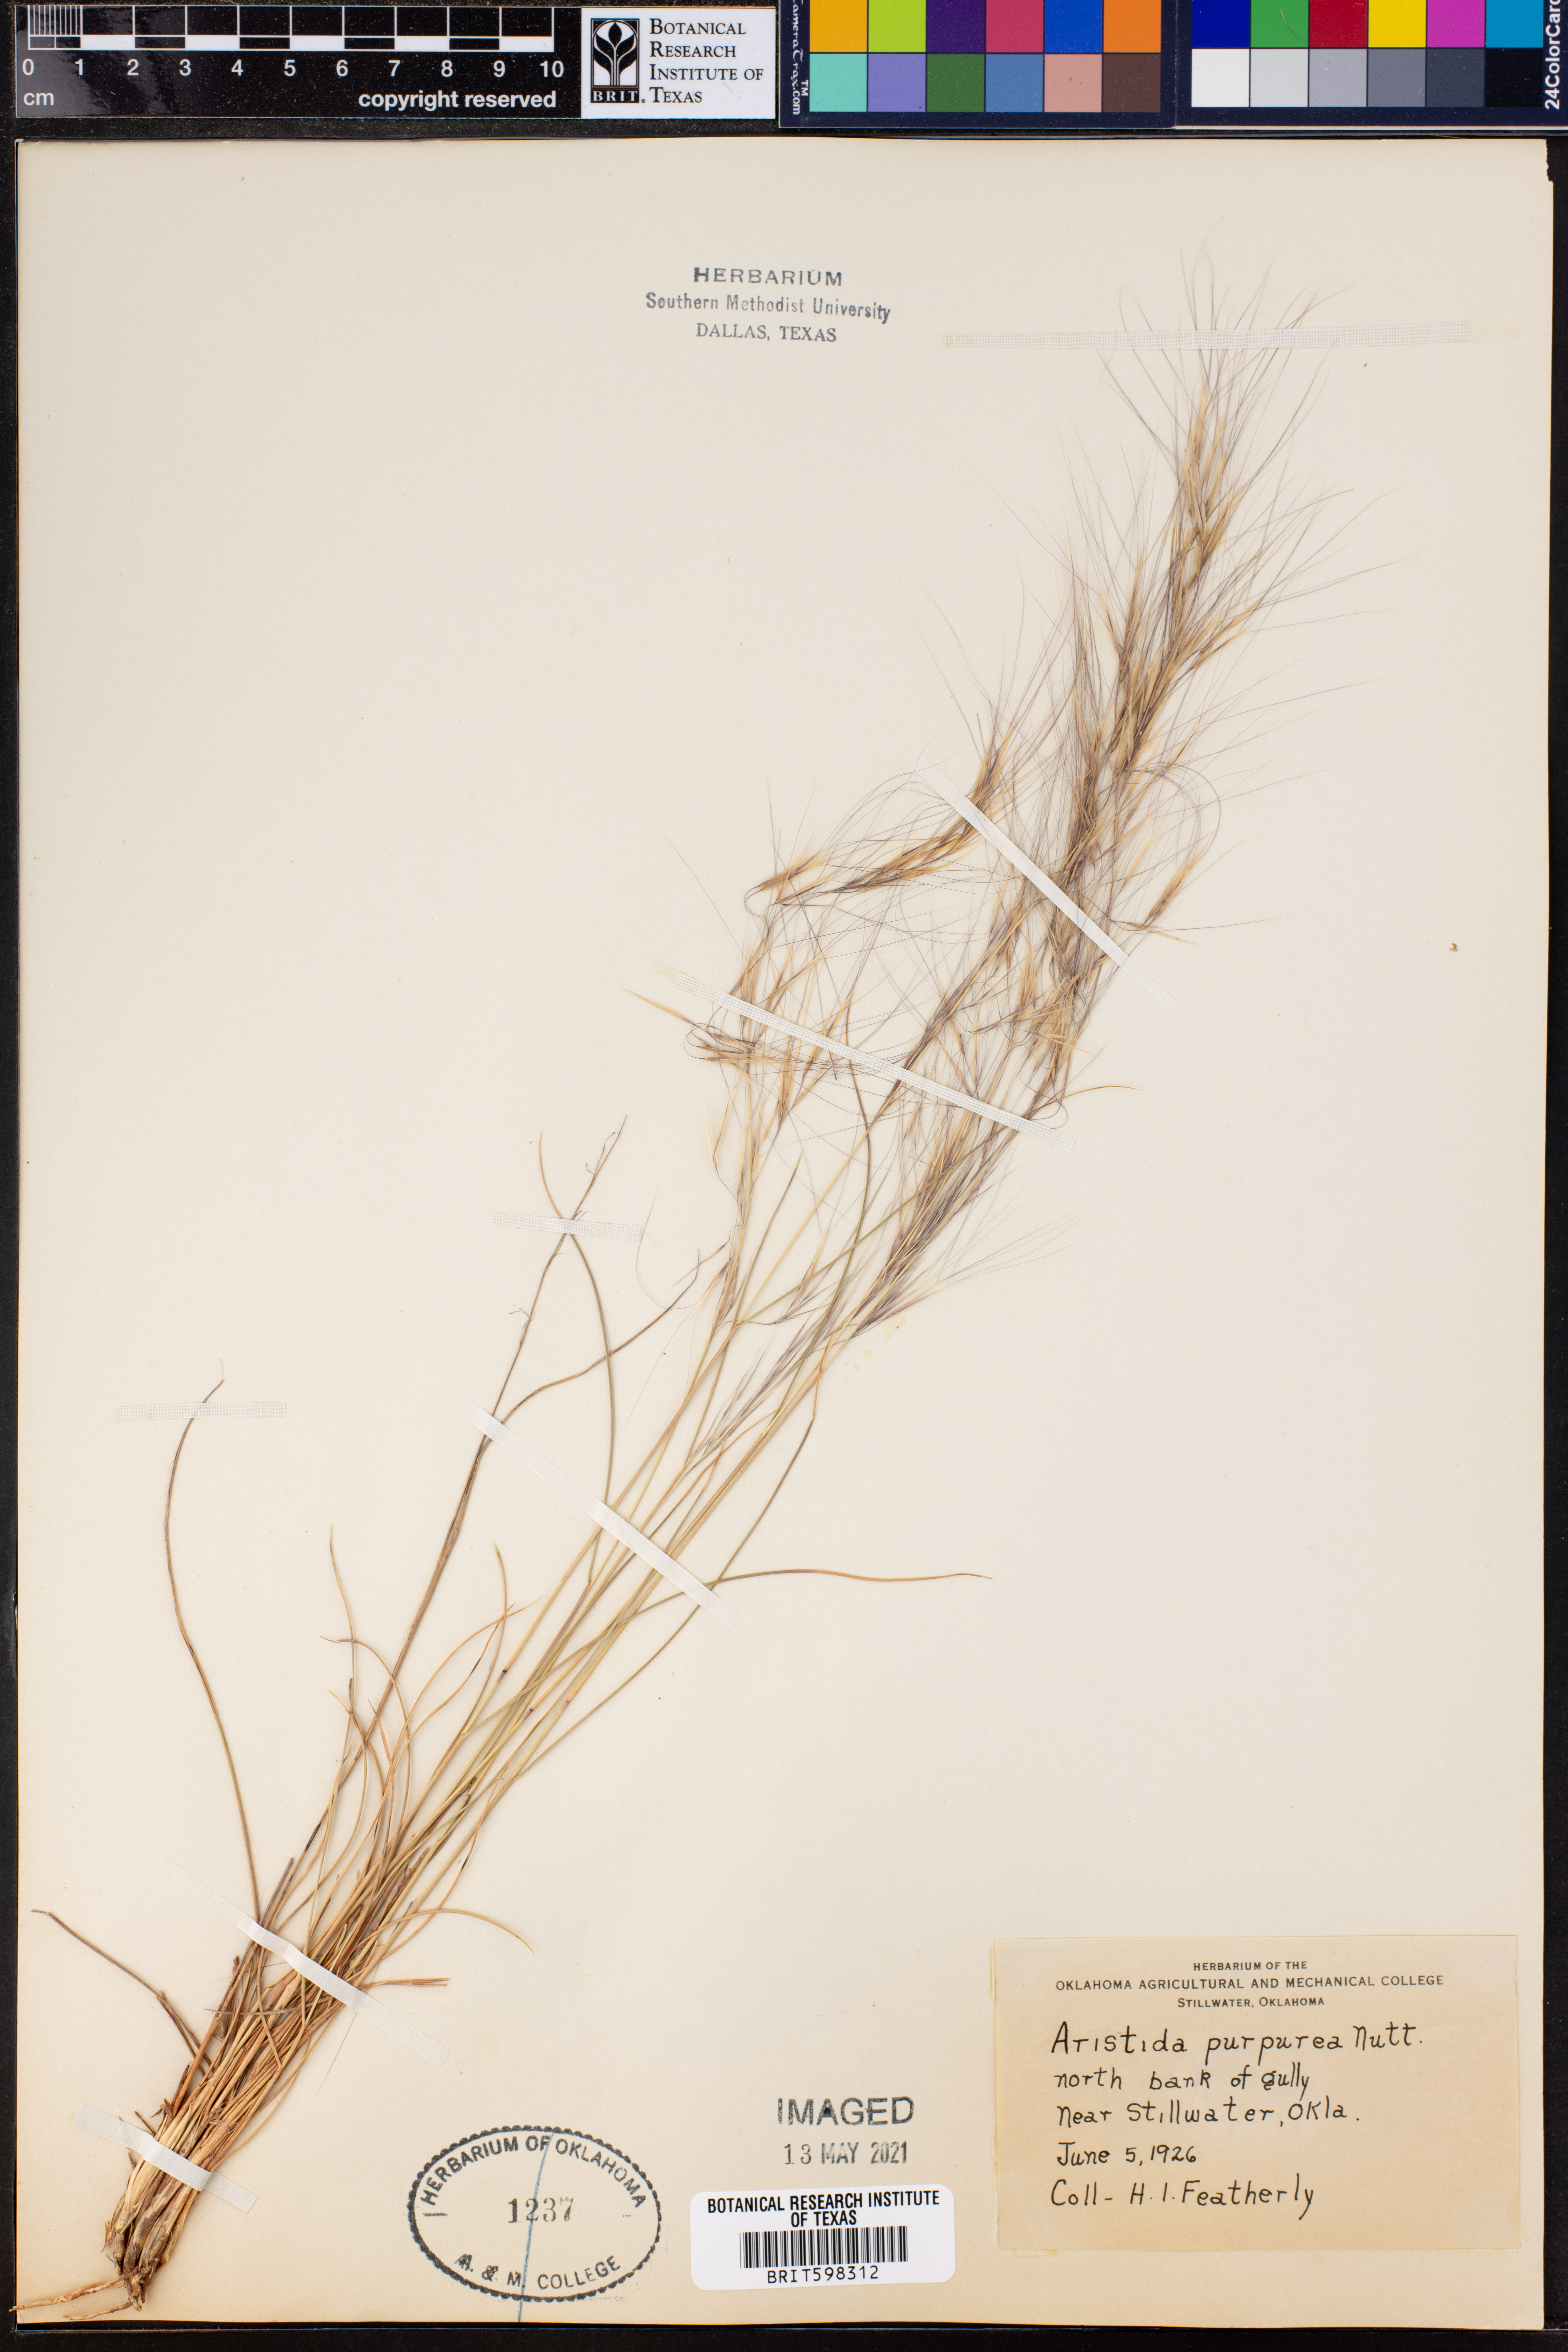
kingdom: Plantae
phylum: Tracheophyta
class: Liliopsida
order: Poales
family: Poaceae
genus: Aristida
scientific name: Aristida purpurea
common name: Purple threeawn
